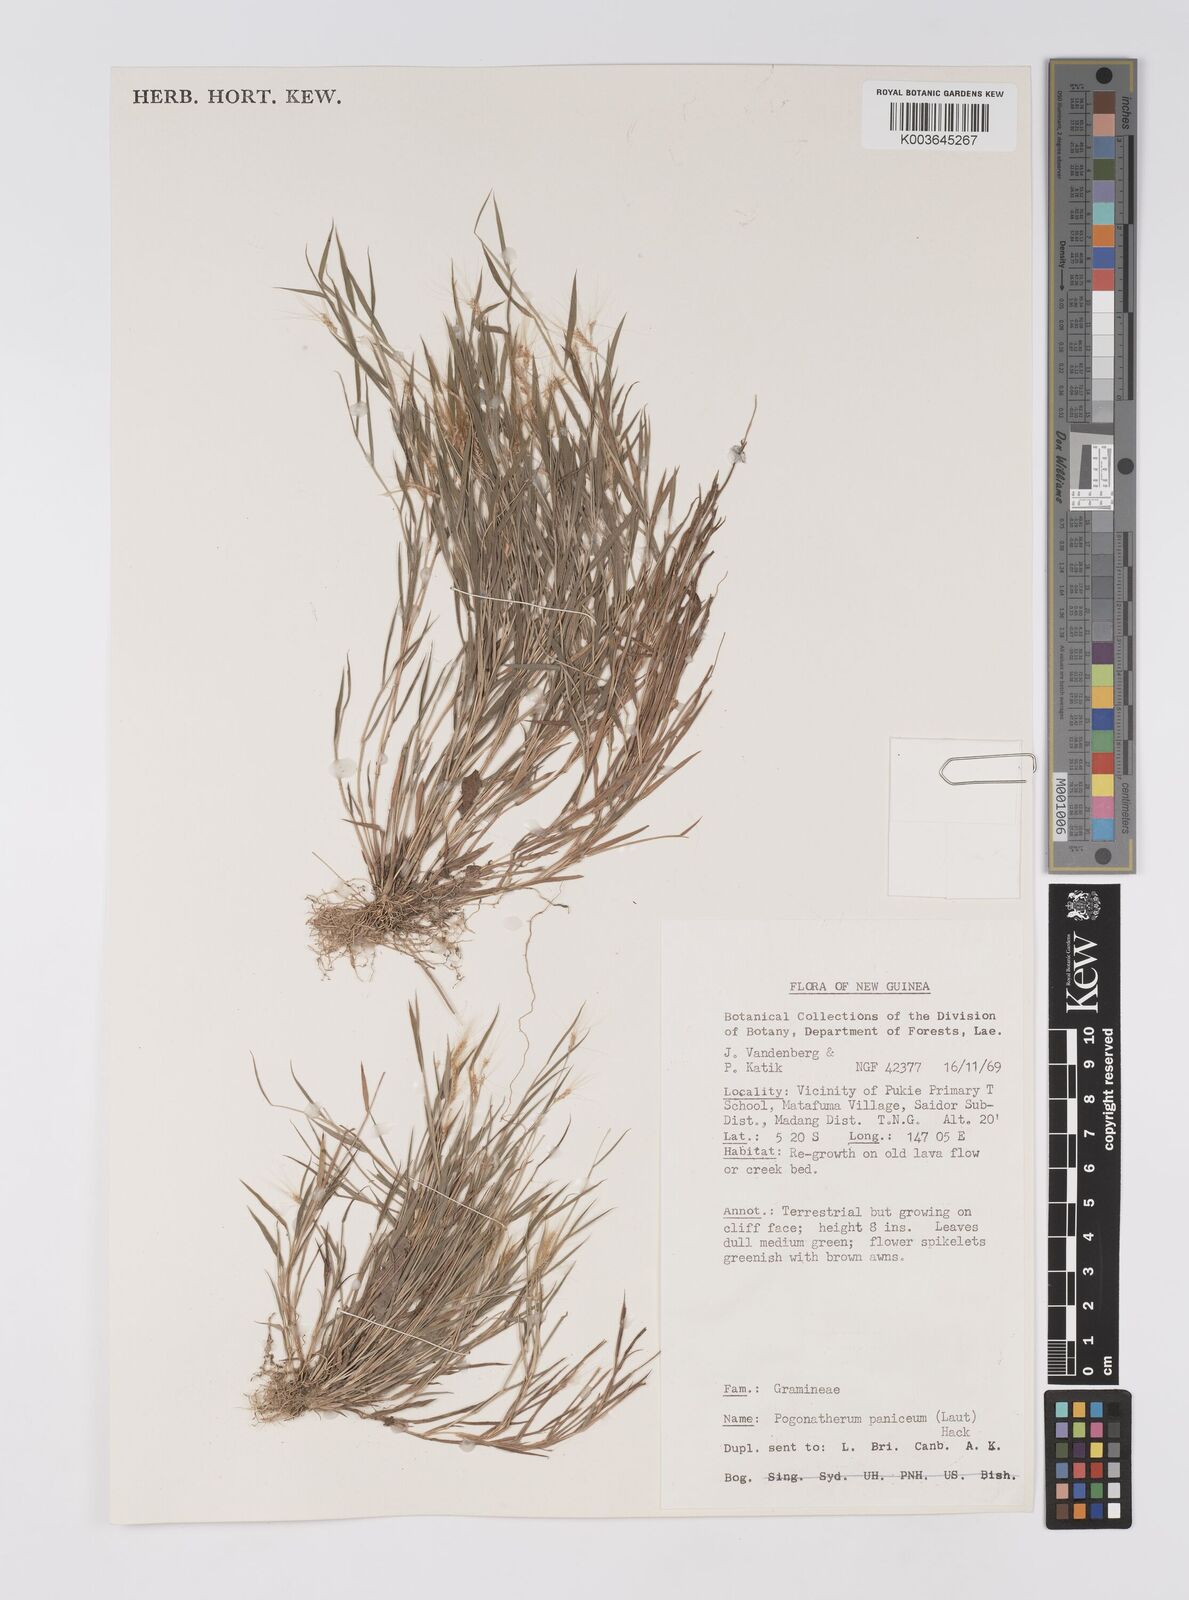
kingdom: Plantae
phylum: Tracheophyta
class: Liliopsida
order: Poales
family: Poaceae
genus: Pogonatherum
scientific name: Pogonatherum crinitum
